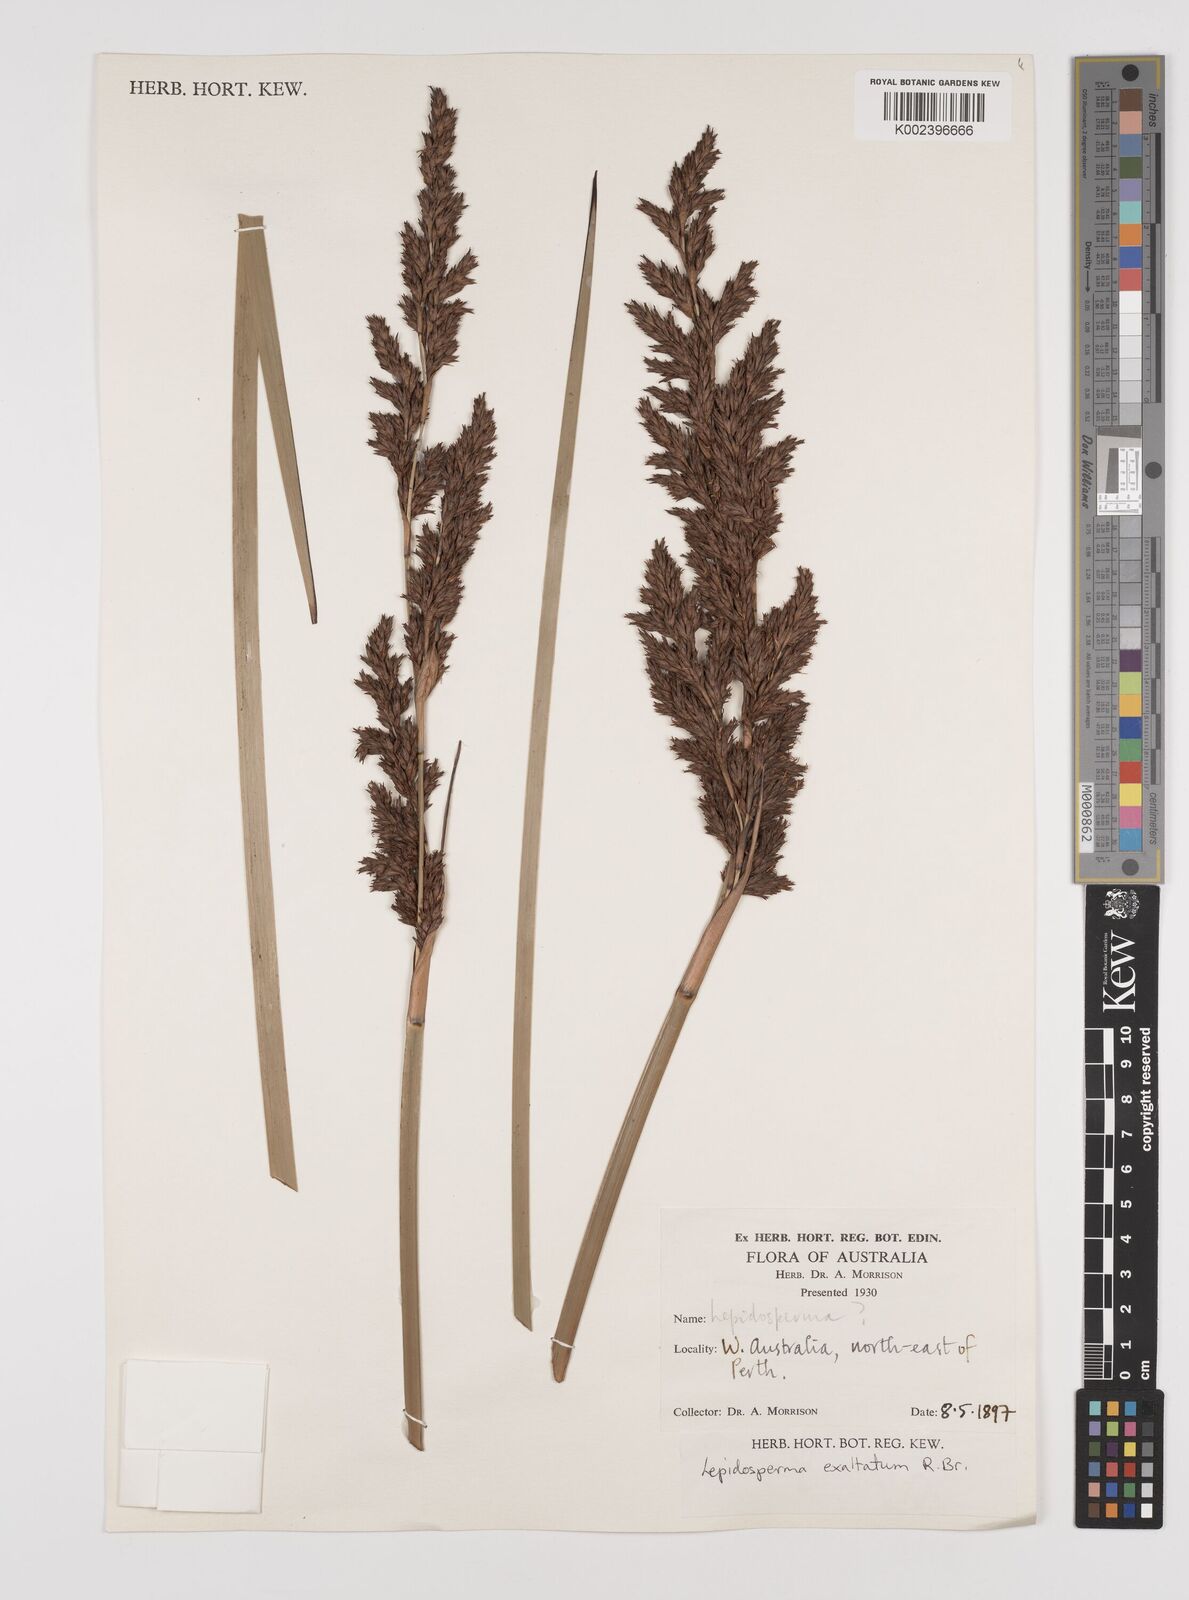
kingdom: Plantae
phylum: Tracheophyta
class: Liliopsida
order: Poales
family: Cyperaceae
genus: Lepidosperma
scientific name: Lepidosperma longitudinale
